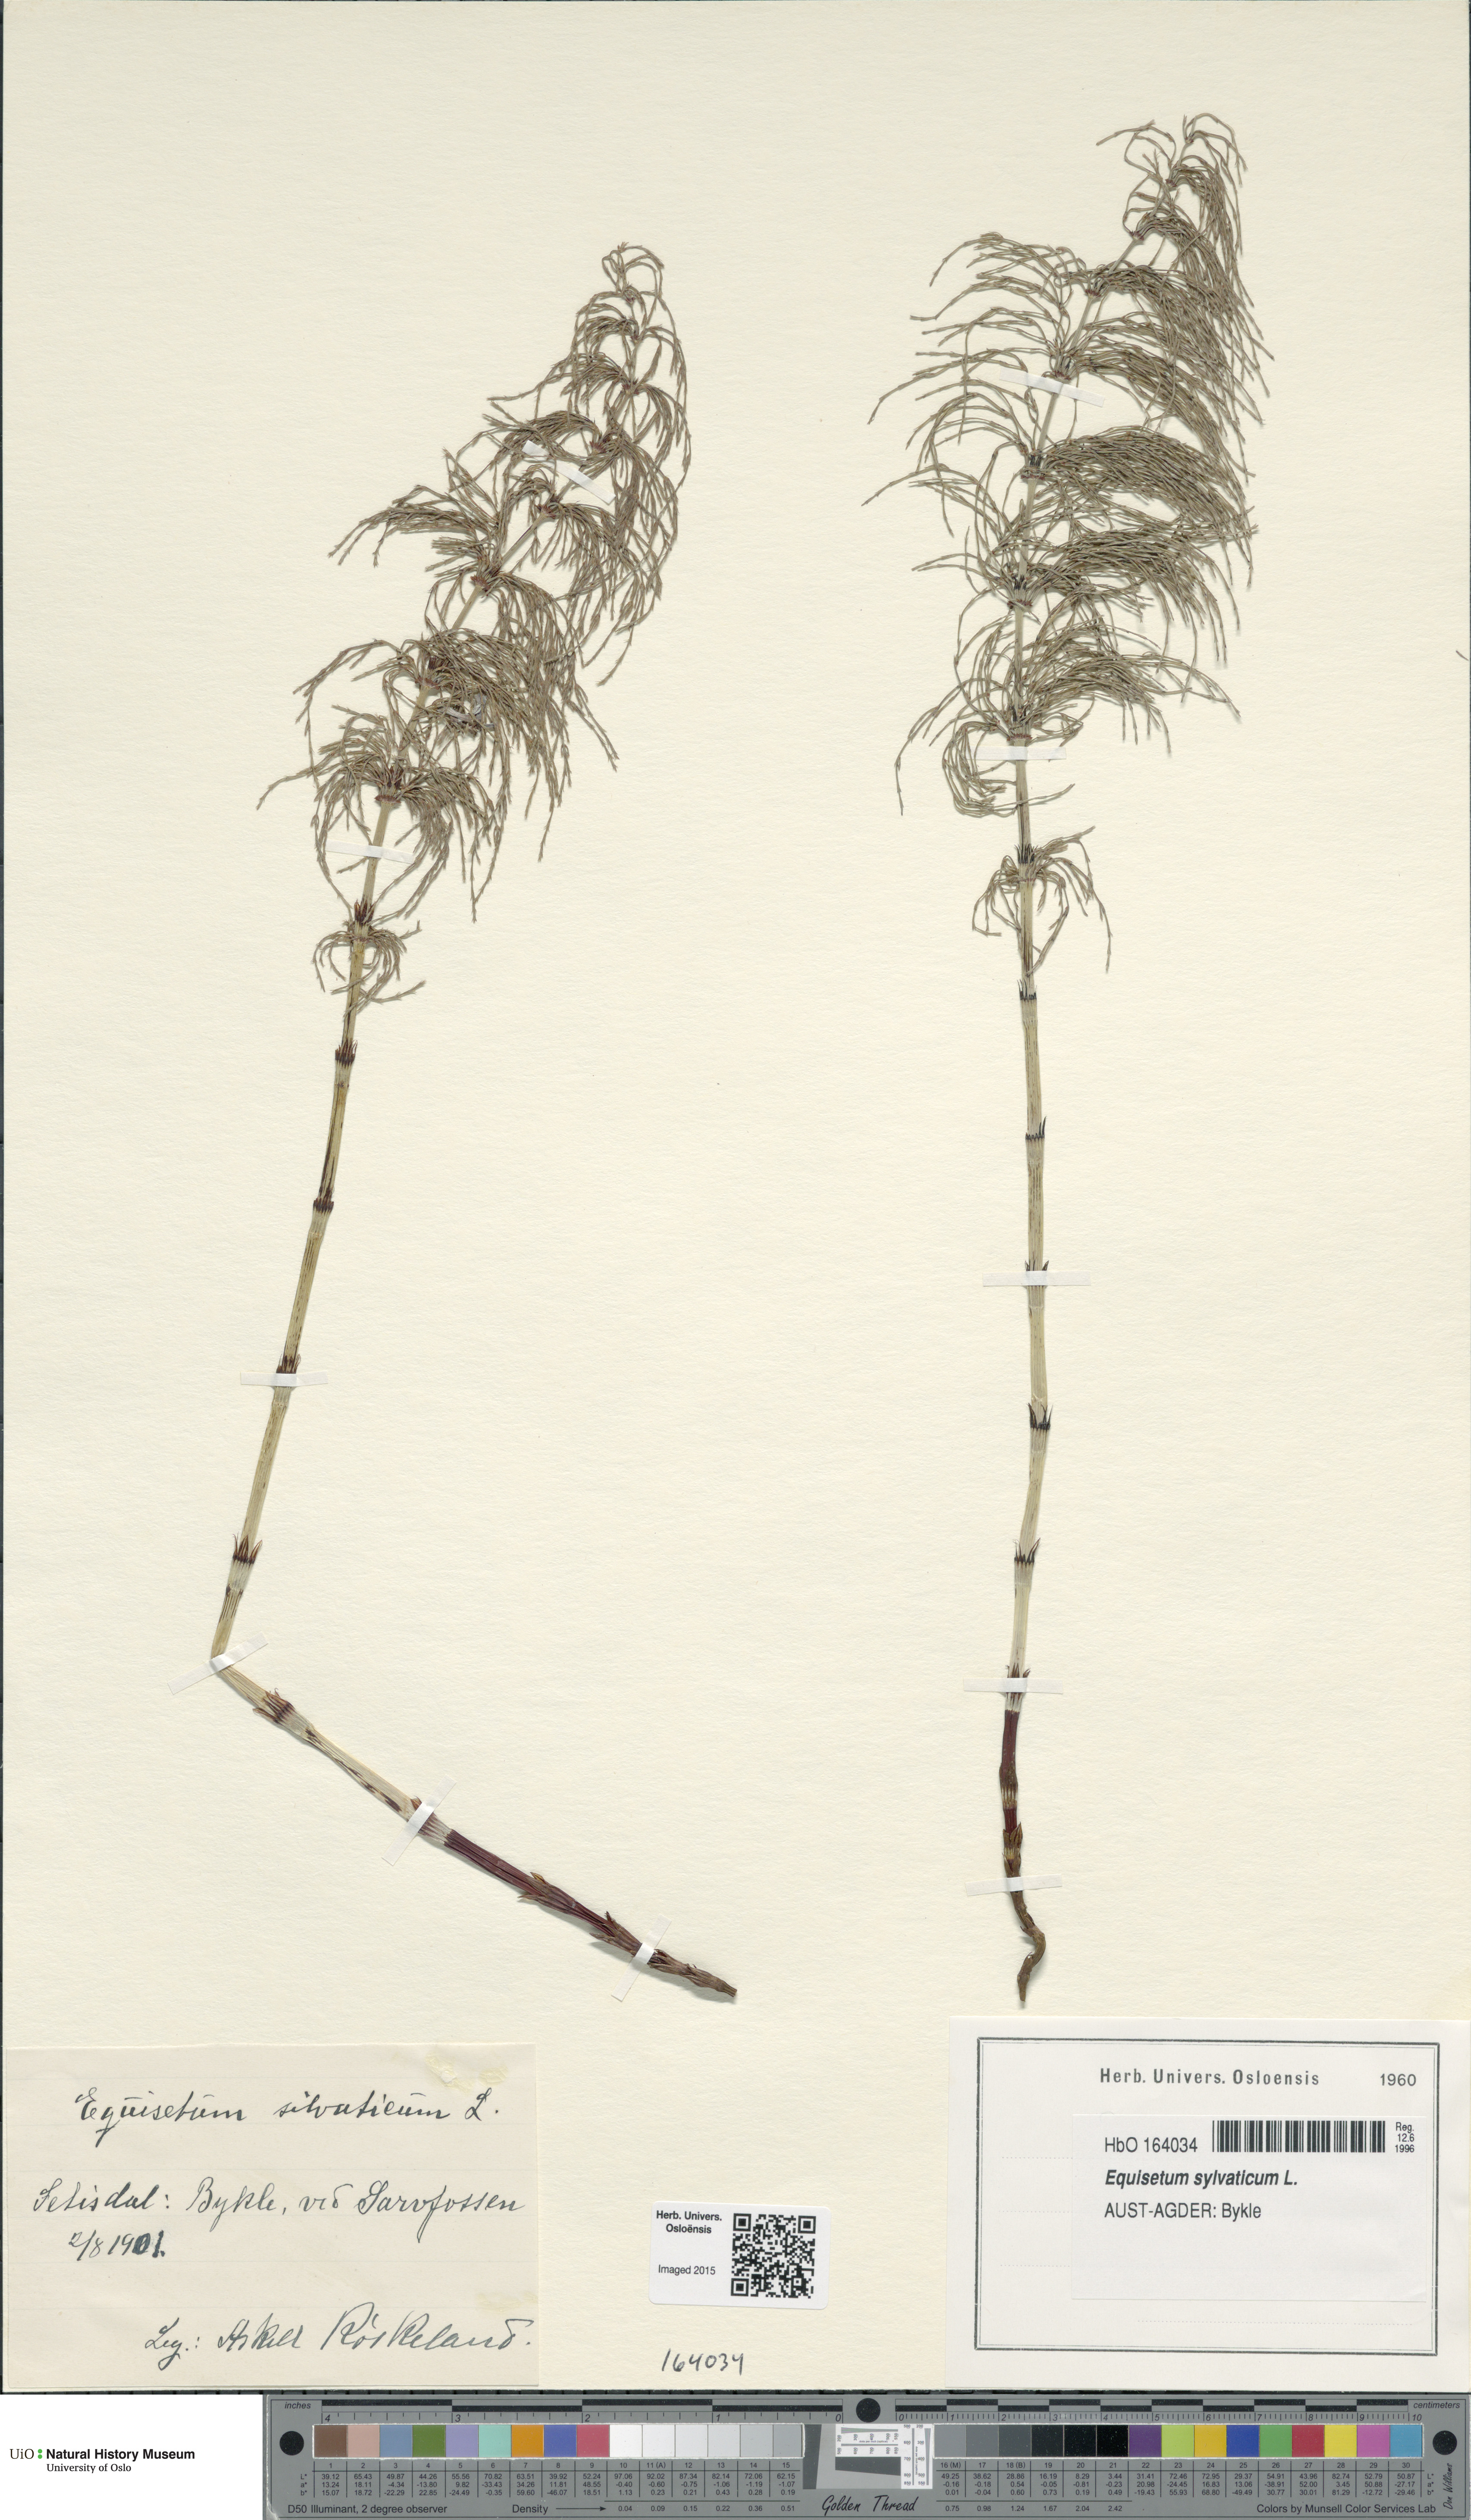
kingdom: Plantae
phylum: Tracheophyta
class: Polypodiopsida
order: Equisetales
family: Equisetaceae
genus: Equisetum
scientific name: Equisetum sylvaticum
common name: Wood horsetail
